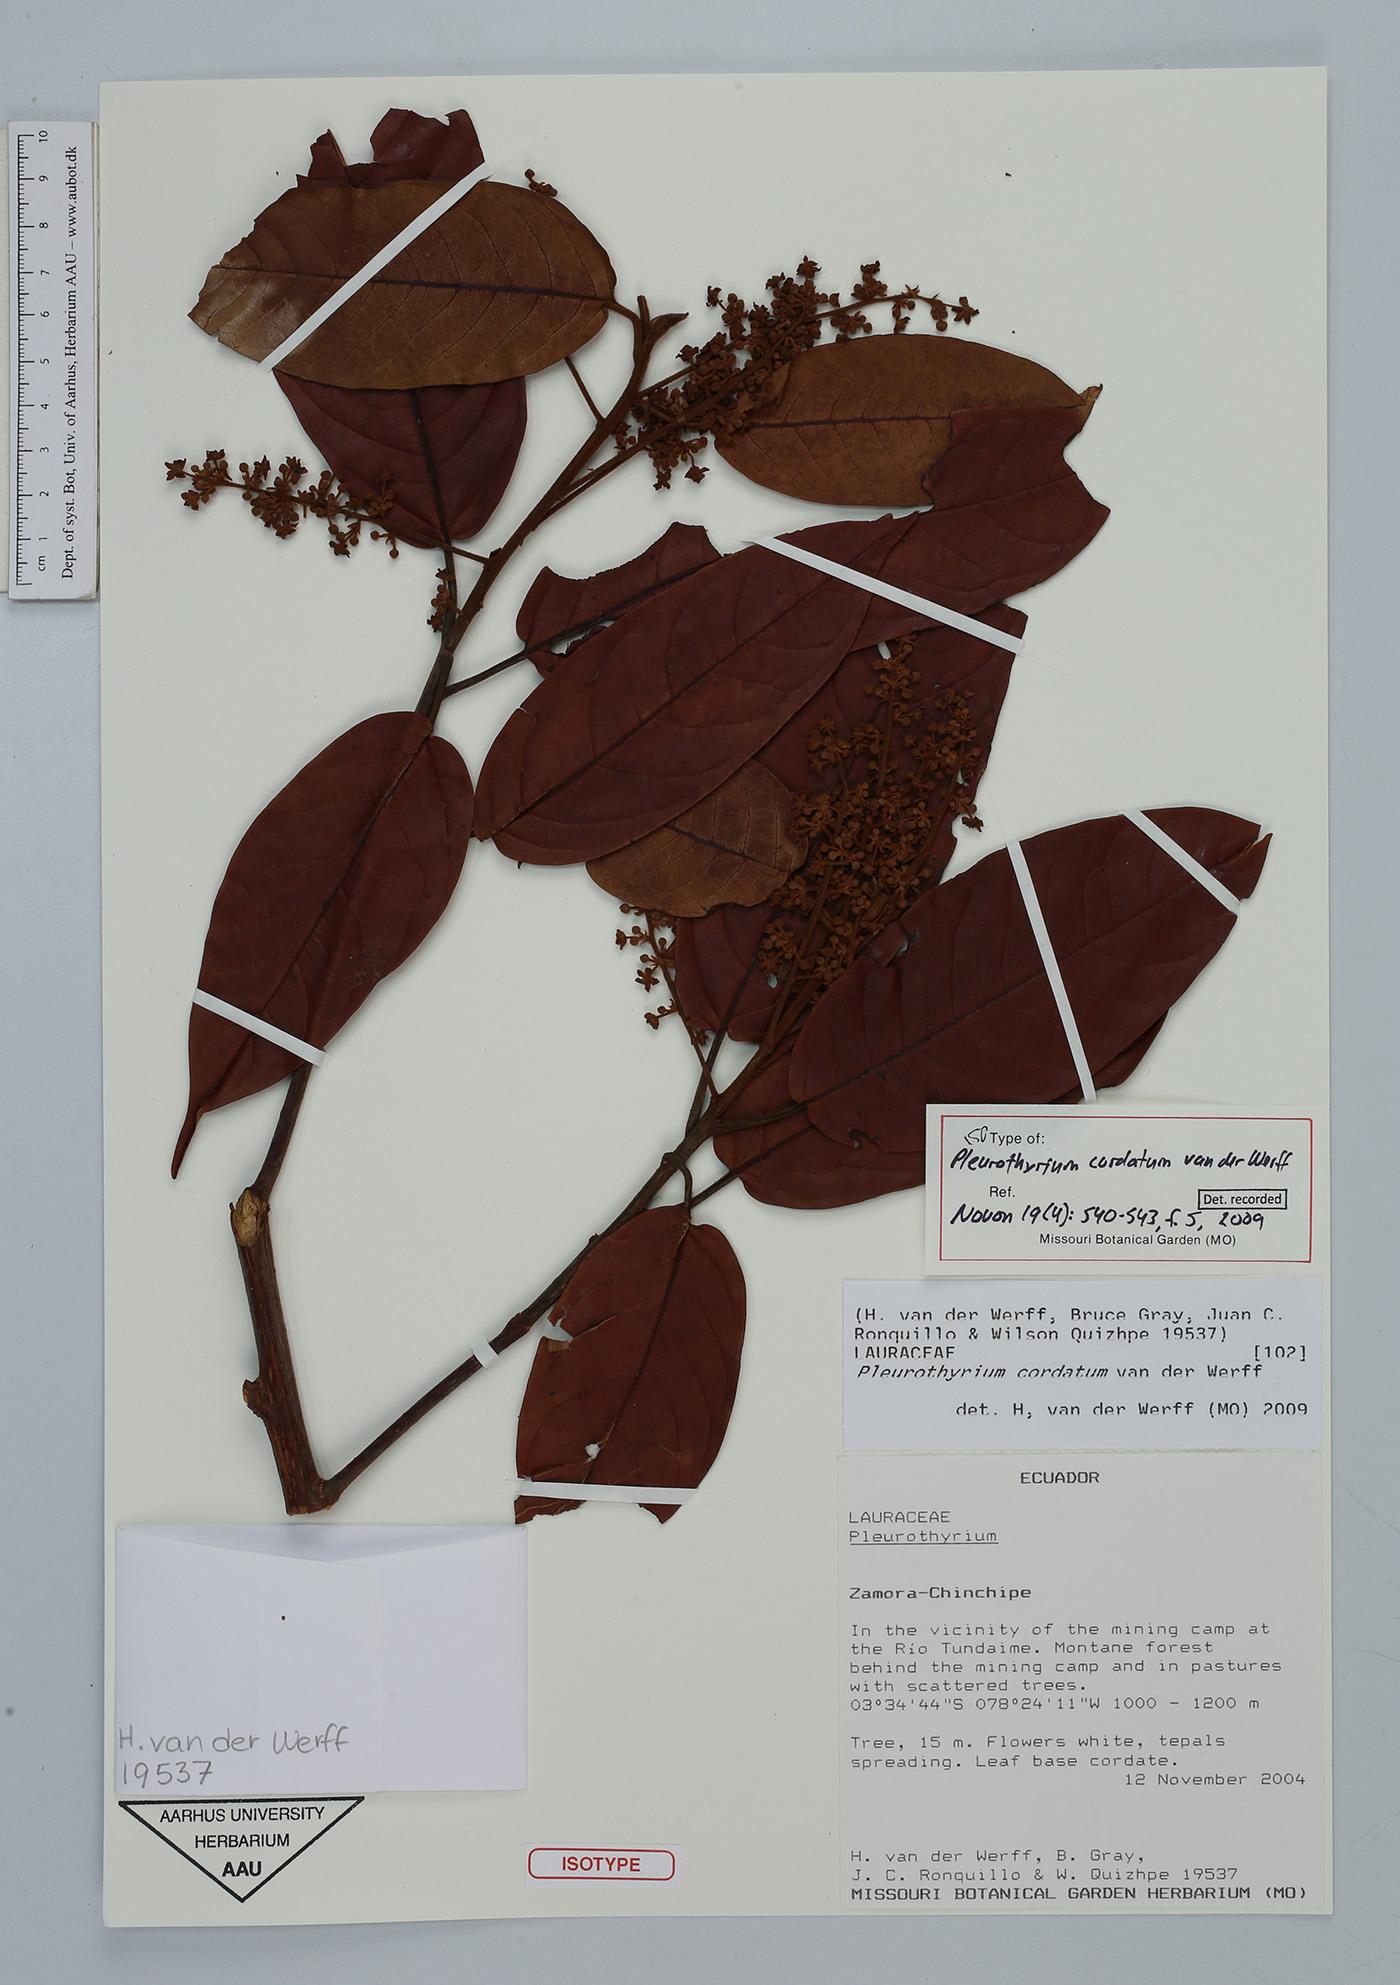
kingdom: Plantae
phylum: Tracheophyta
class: Magnoliopsida
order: Laurales
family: Lauraceae
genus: Pleurothyrium
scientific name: Pleurothyrium cordatum
